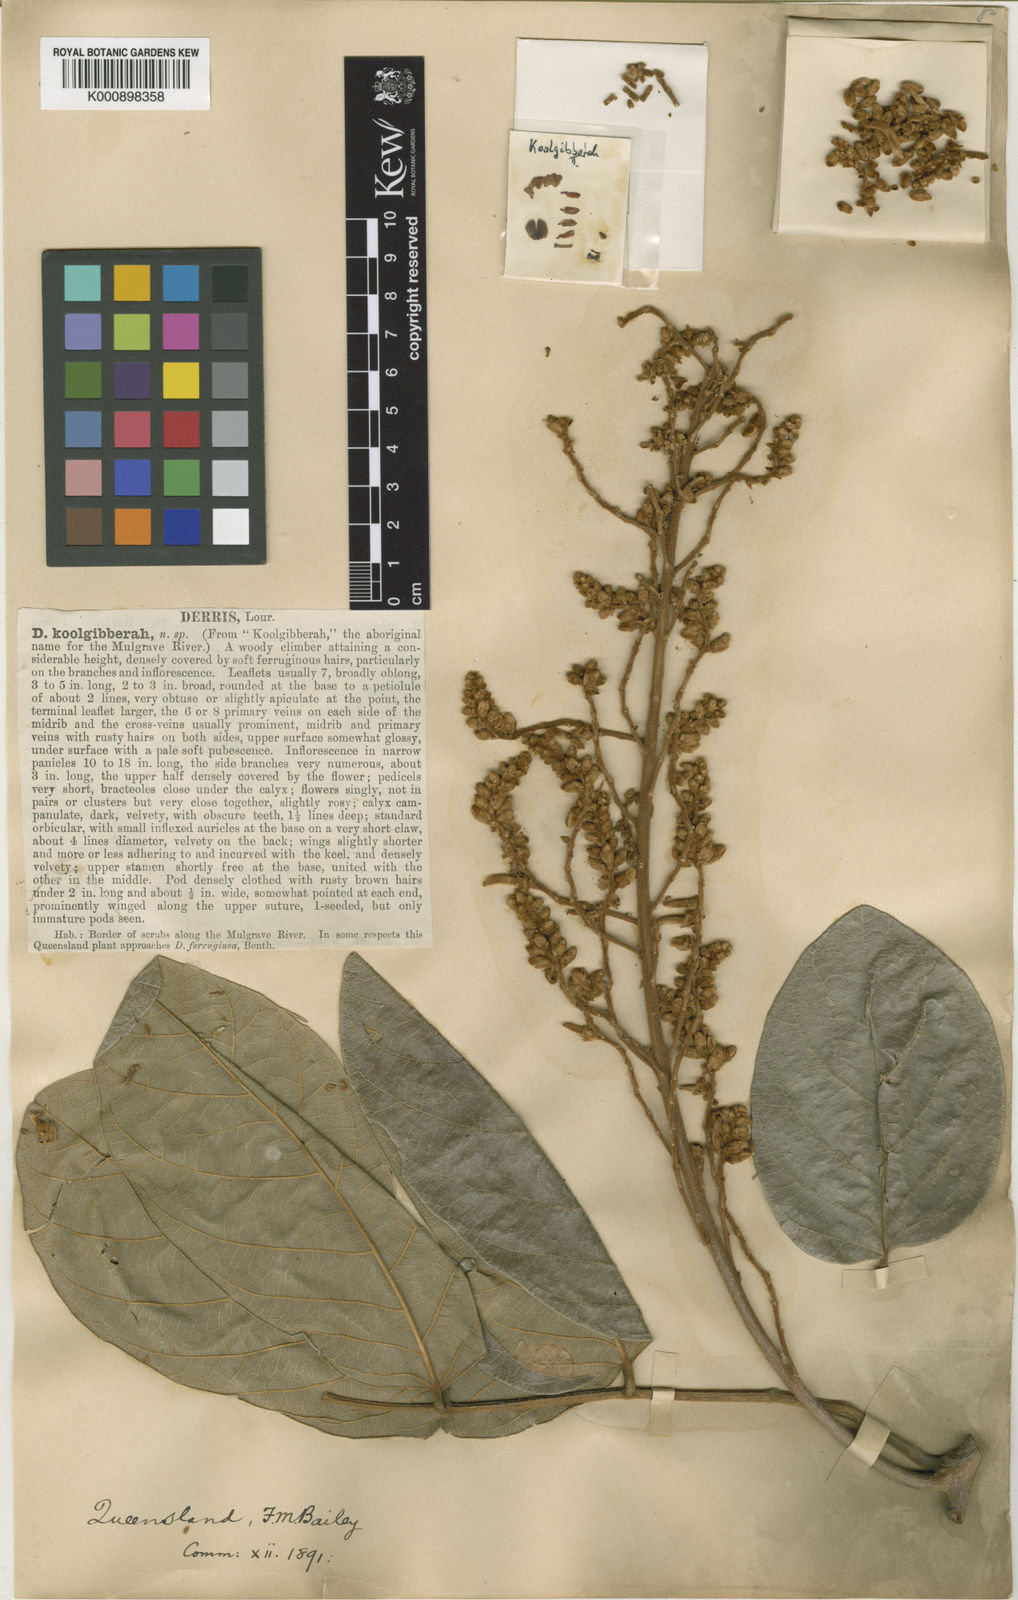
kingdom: Plantae
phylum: Tracheophyta
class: Magnoliopsida
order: Fabales
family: Fabaceae
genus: Brachypterum
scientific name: Brachypterum koolgibberah
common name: Poison rope
